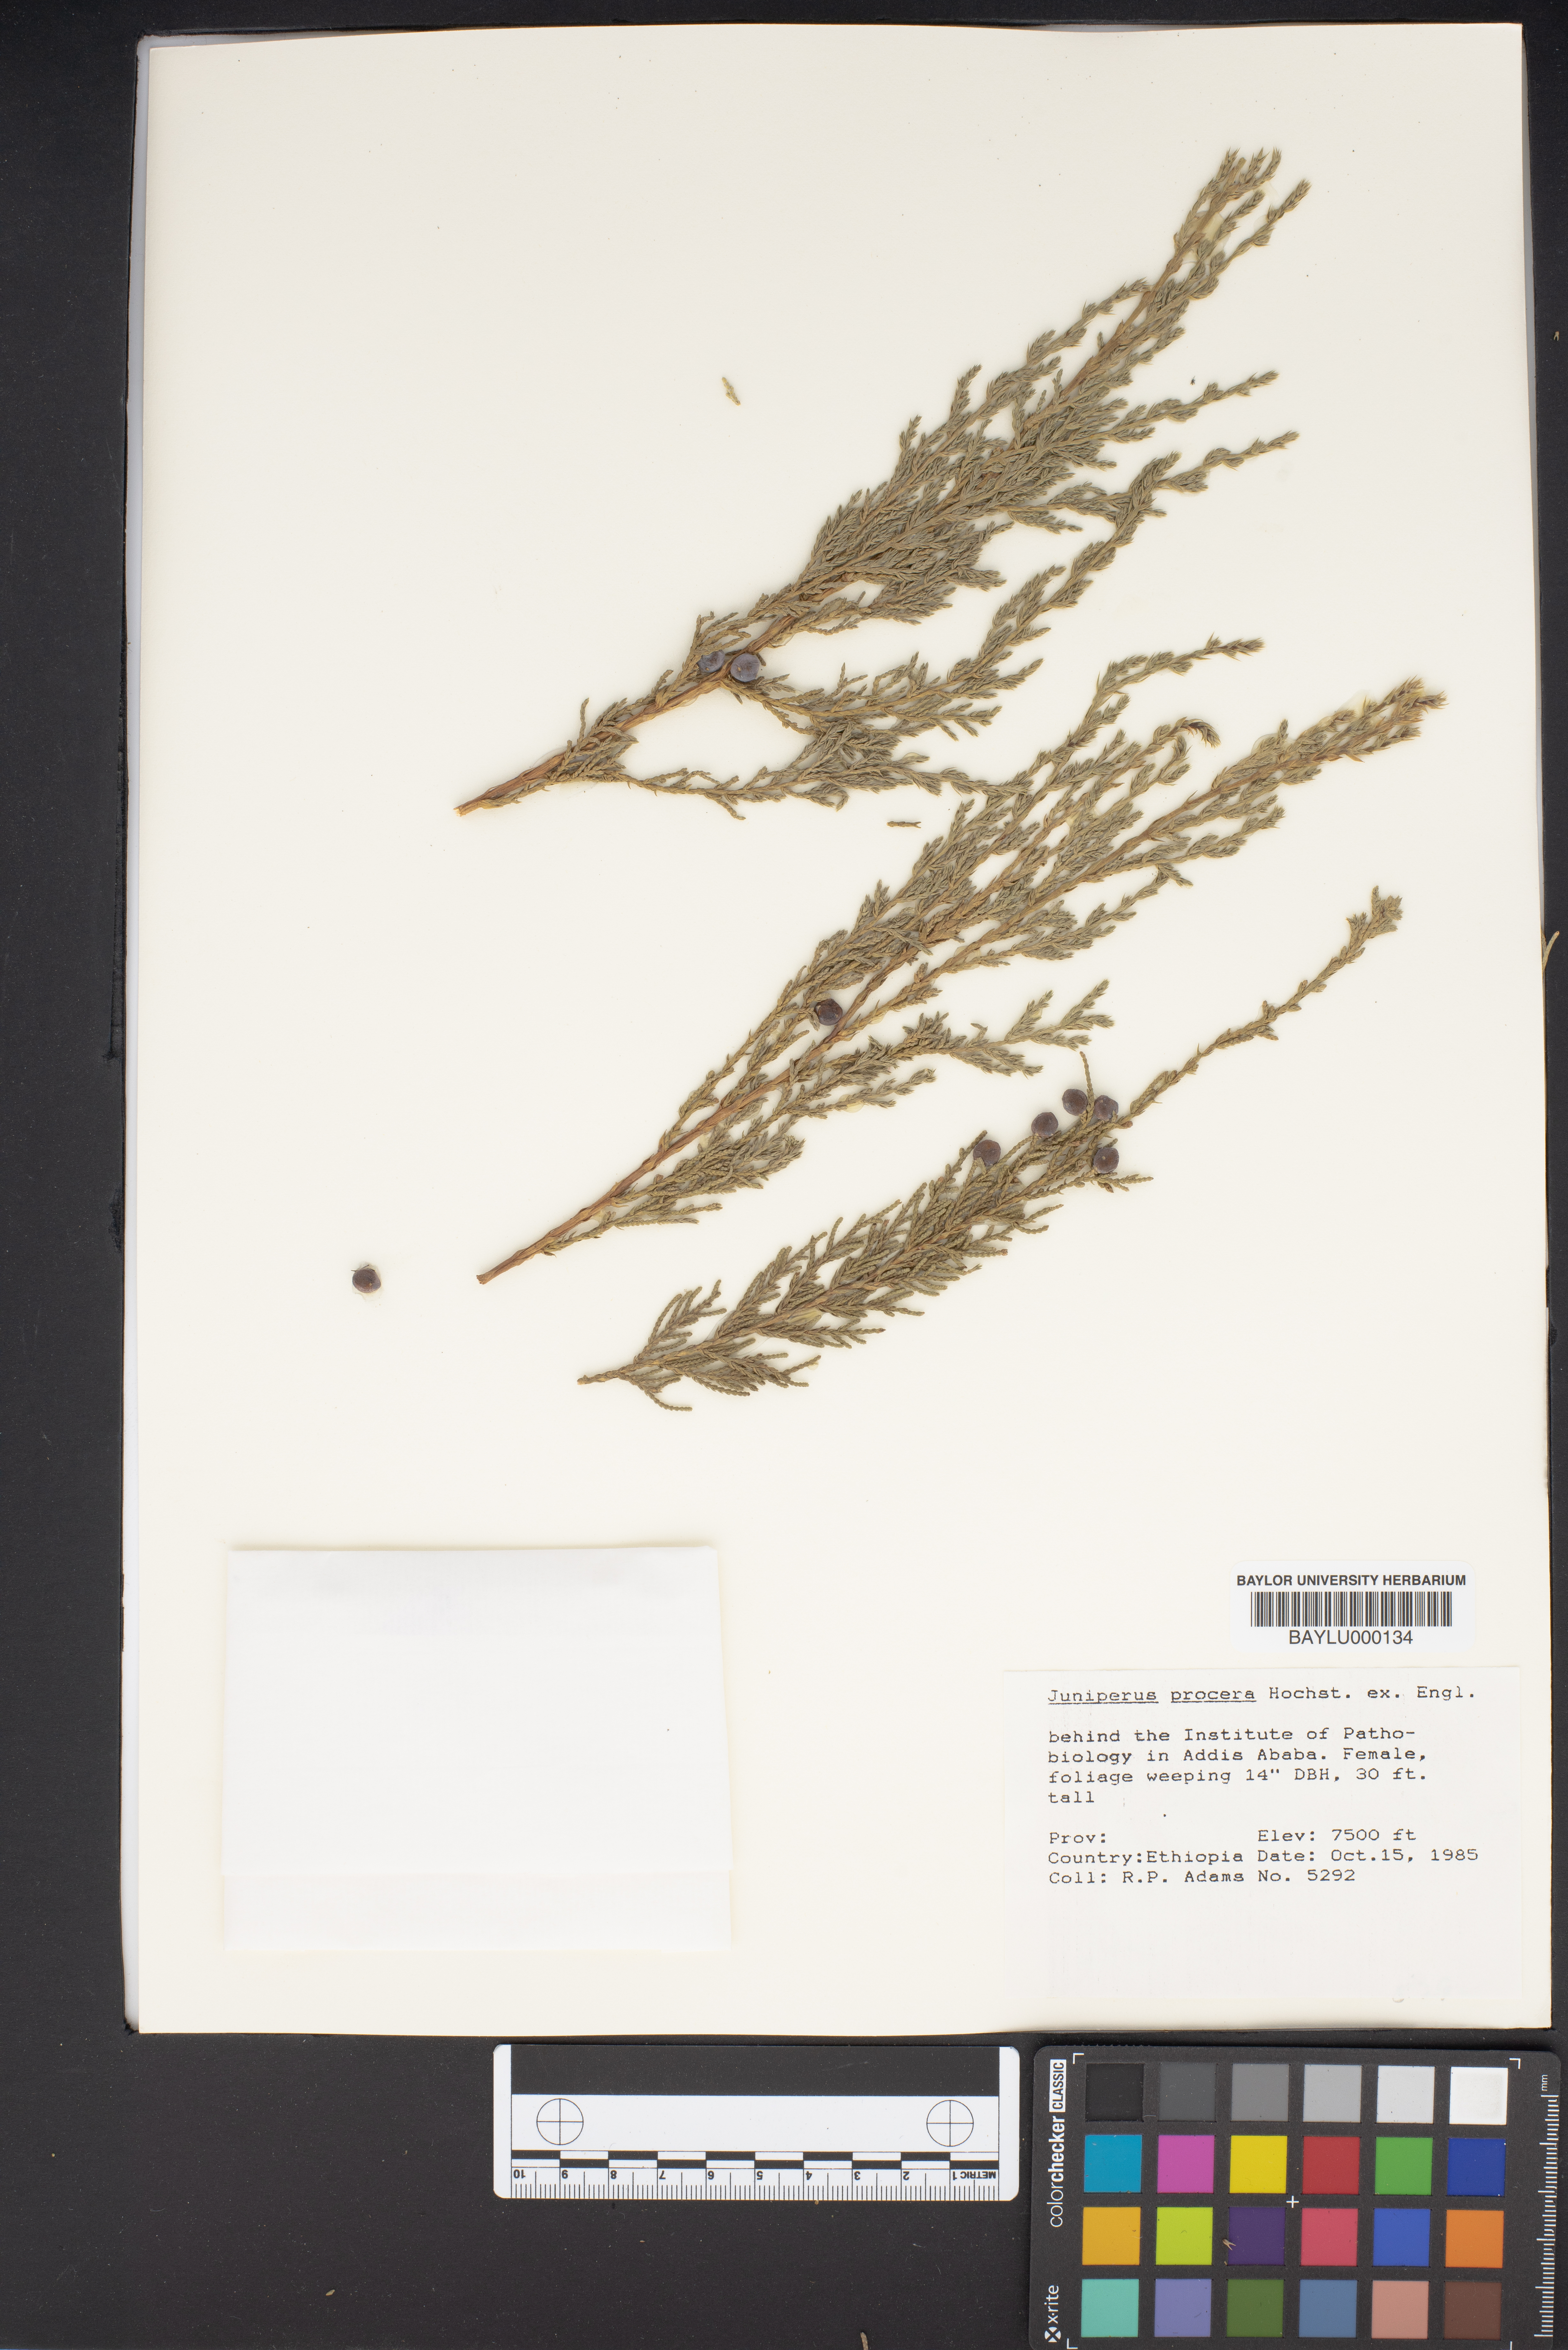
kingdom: Plantae
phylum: Tracheophyta
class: Pinopsida
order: Pinales
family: Cupressaceae
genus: Juniperus
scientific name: Juniperus procera
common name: African juniper
